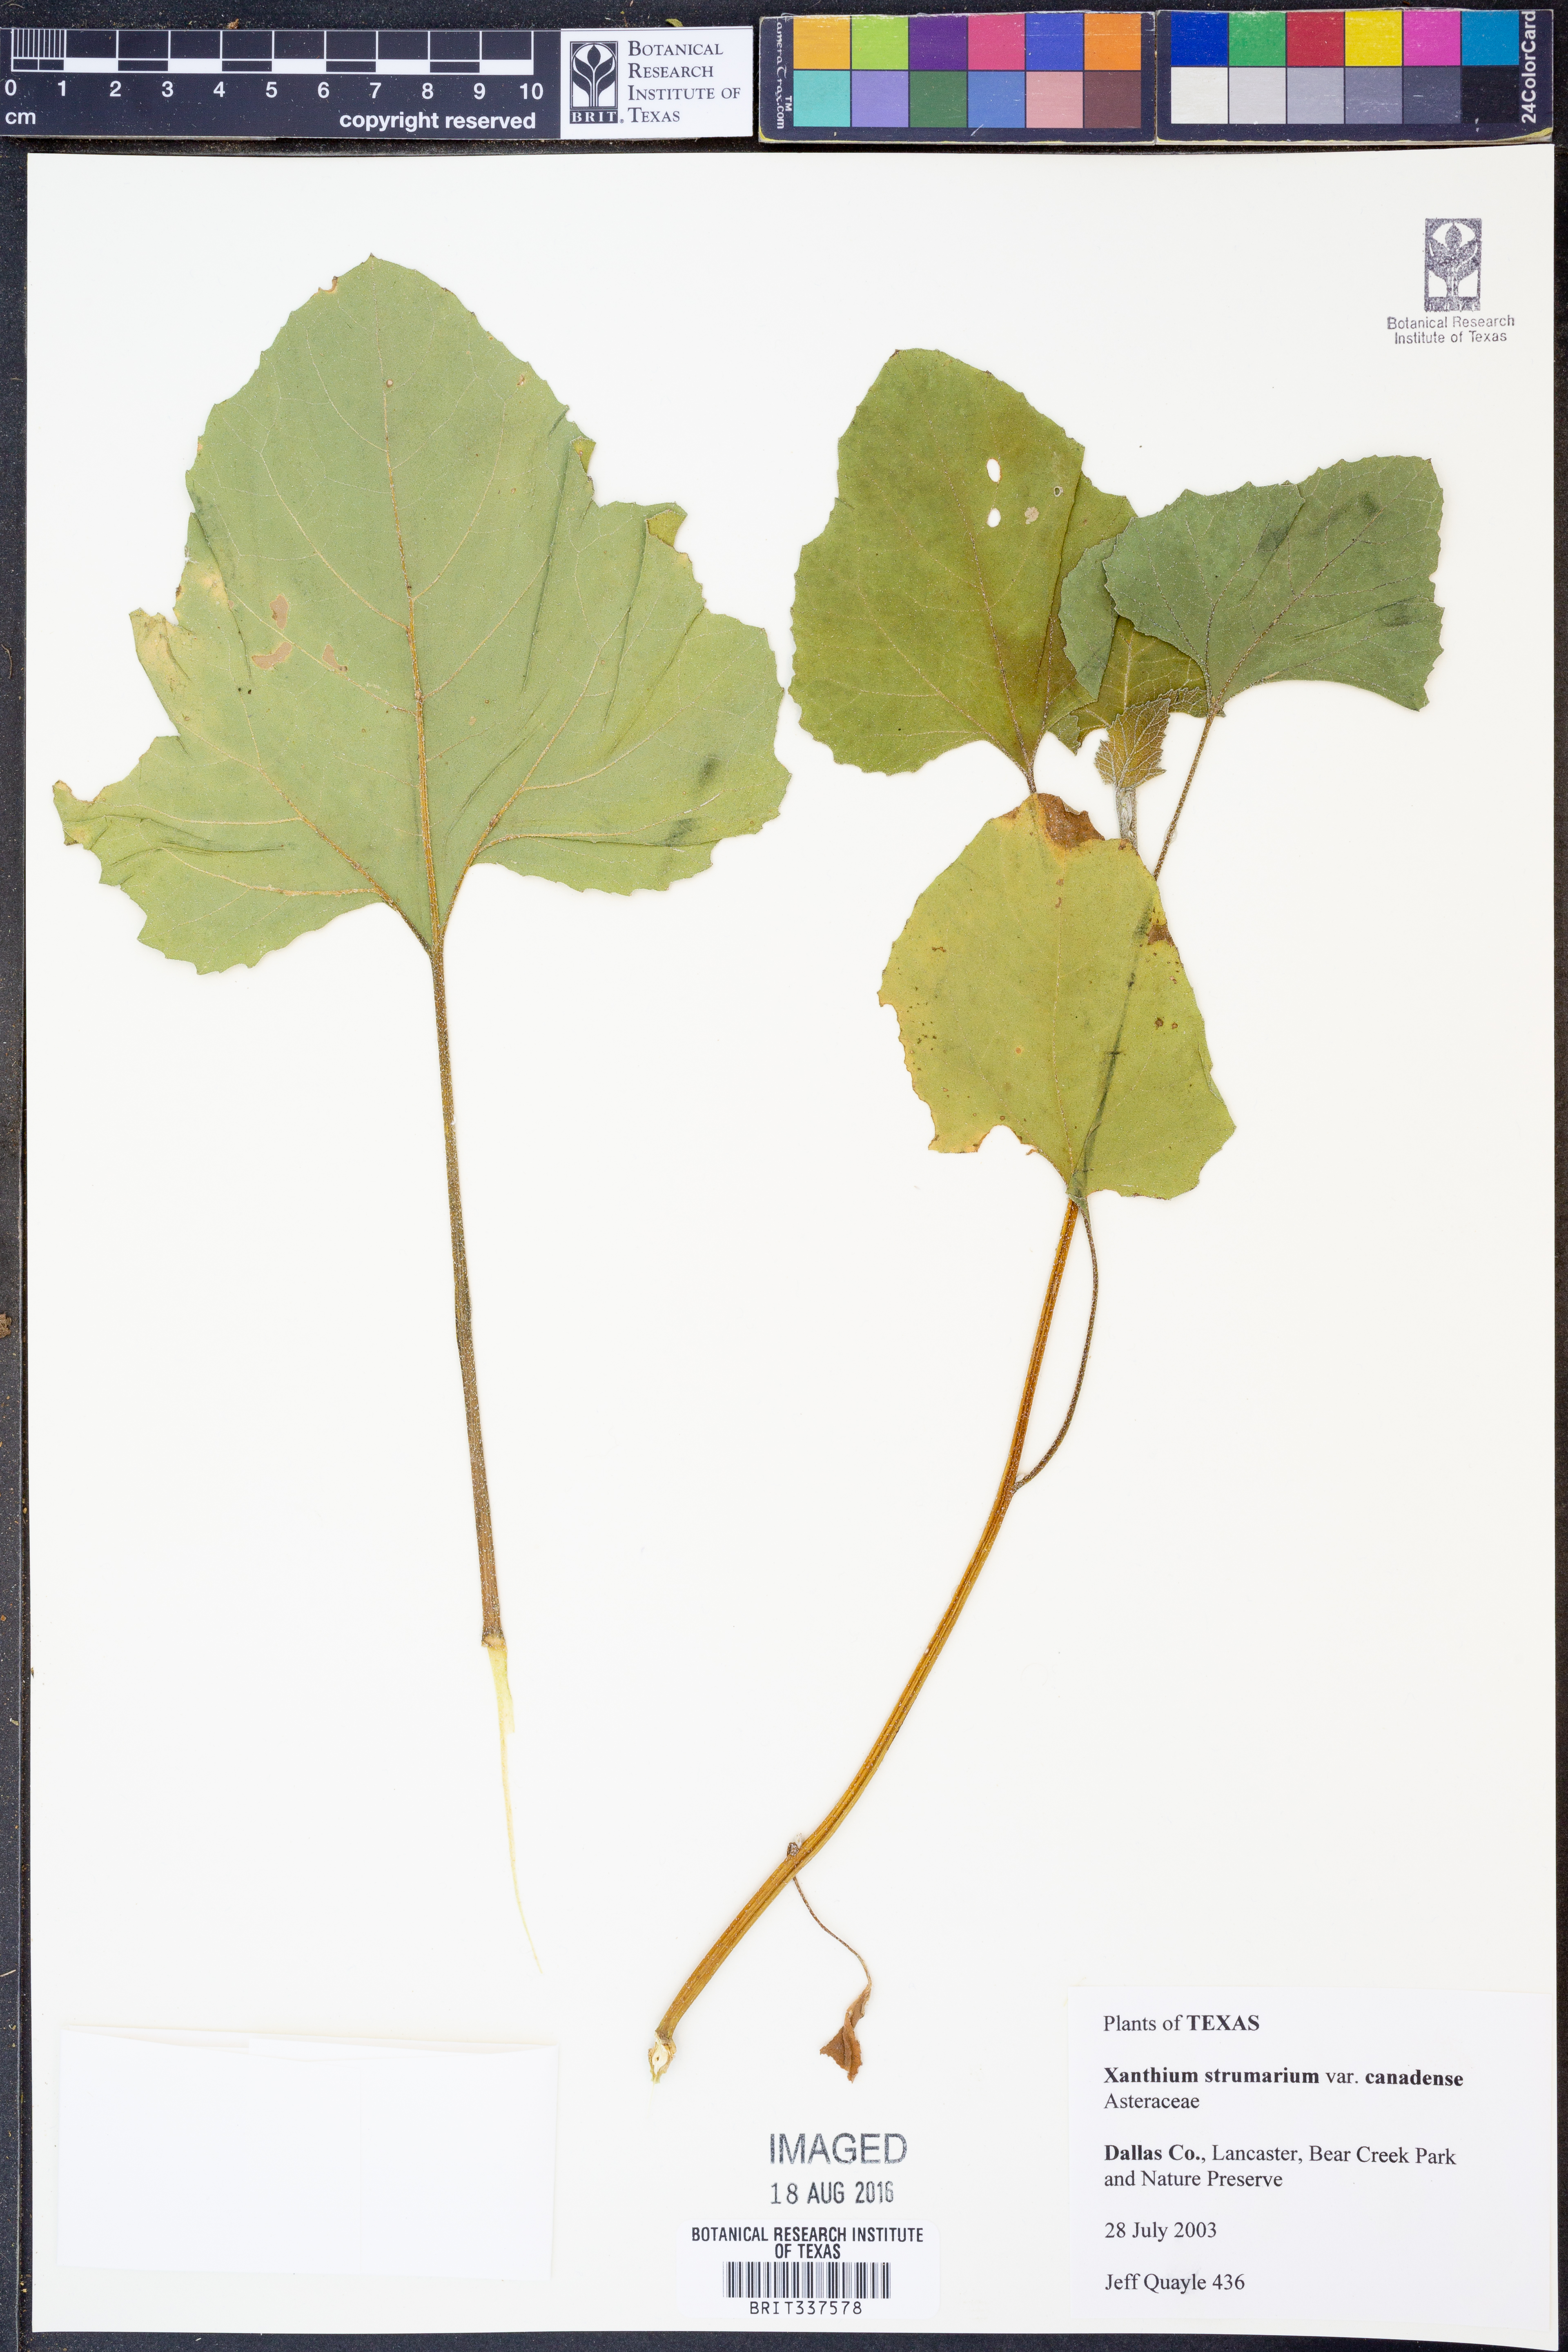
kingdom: Plantae
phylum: Tracheophyta
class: Magnoliopsida
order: Asterales
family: Asteraceae
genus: Xanthium
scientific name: Xanthium orientale
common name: Californian burr
